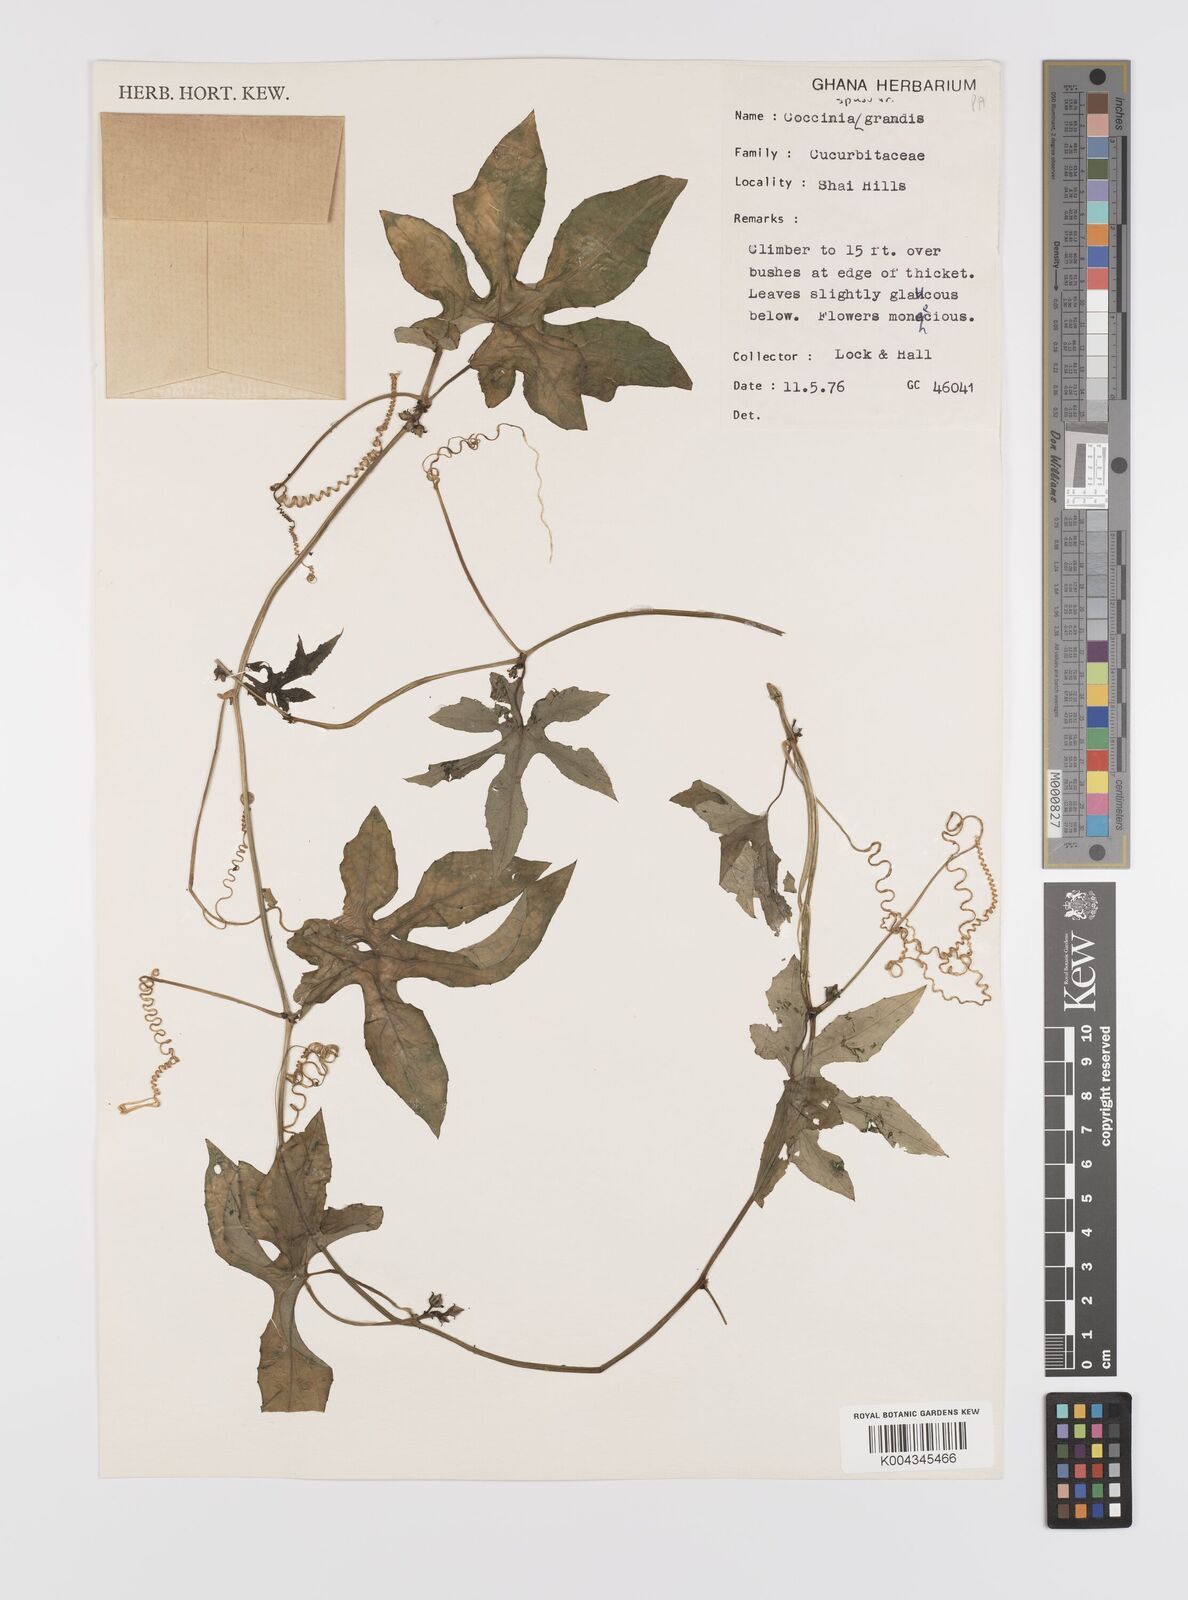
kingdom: Plantae
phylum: Tracheophyta
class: Magnoliopsida
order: Cucurbitales
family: Cucurbitaceae
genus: Coccinia
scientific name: Coccinia grandis
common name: Ivy gourd
